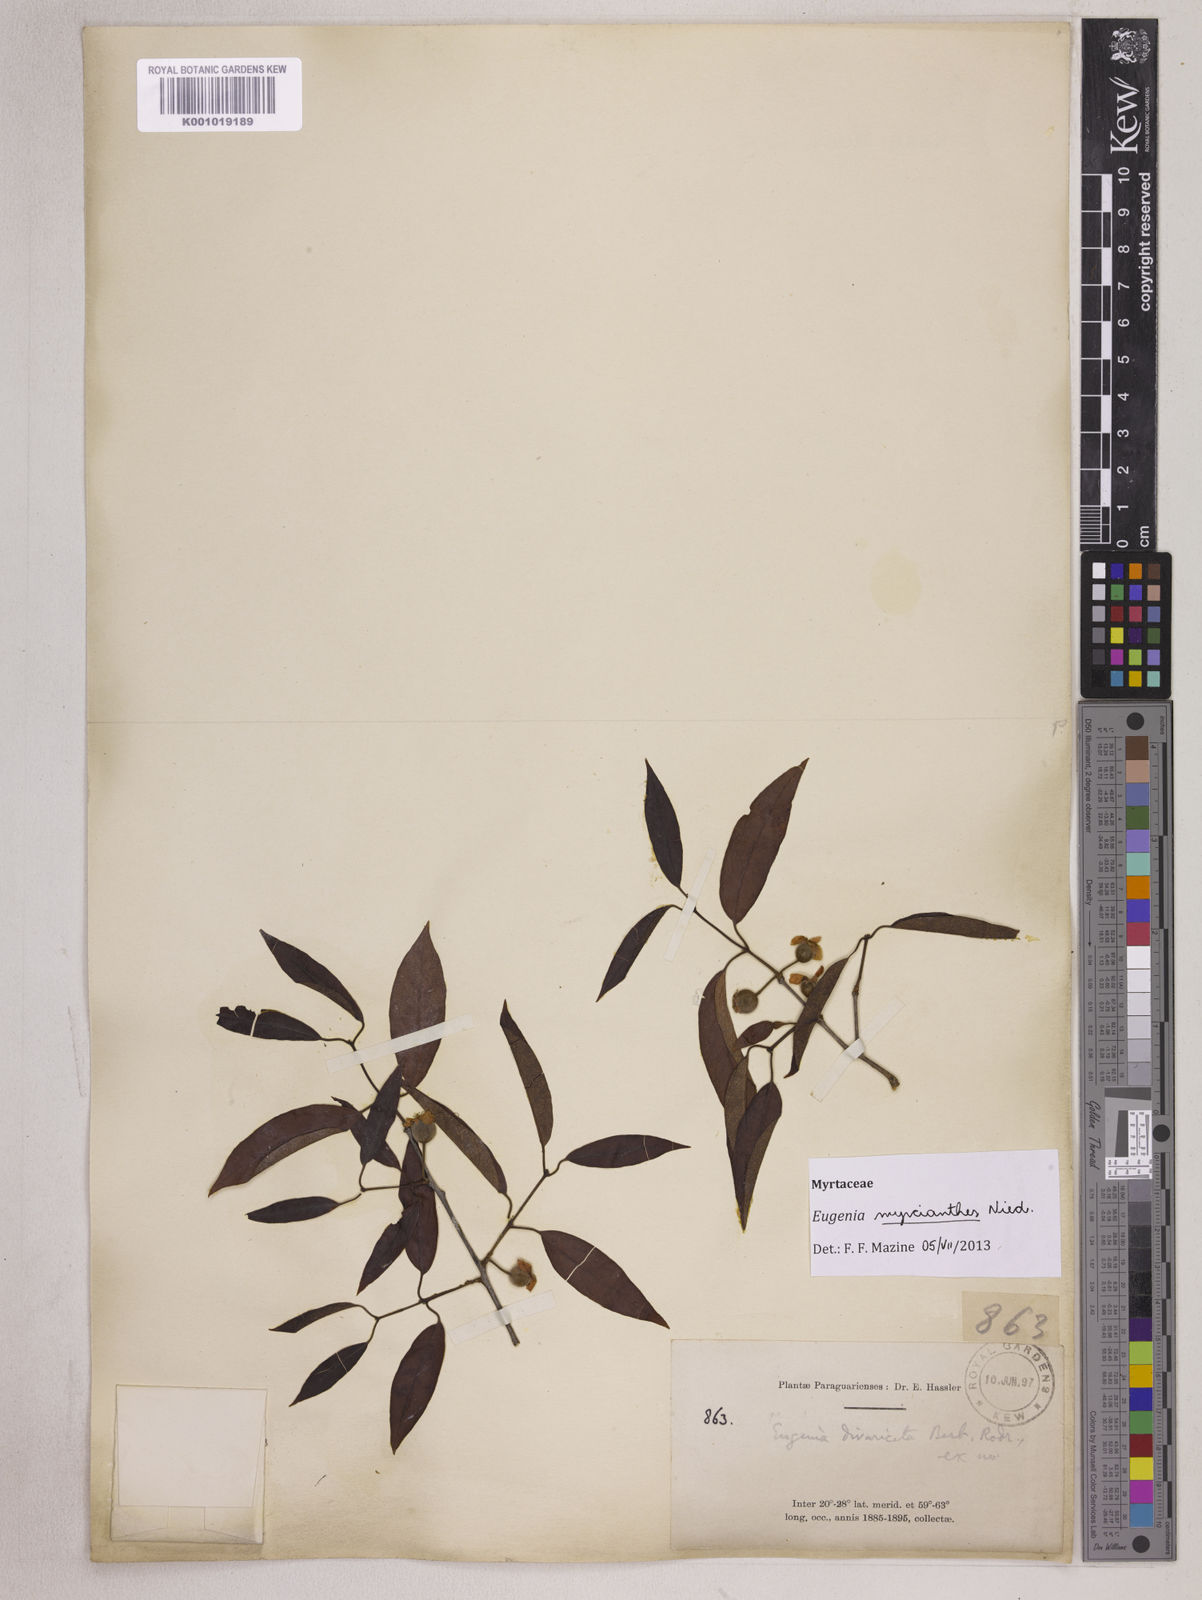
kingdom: Plantae
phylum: Tracheophyta
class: Magnoliopsida
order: Myrtales
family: Myrtaceae
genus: Eugenia
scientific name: Eugenia myrcianthes
